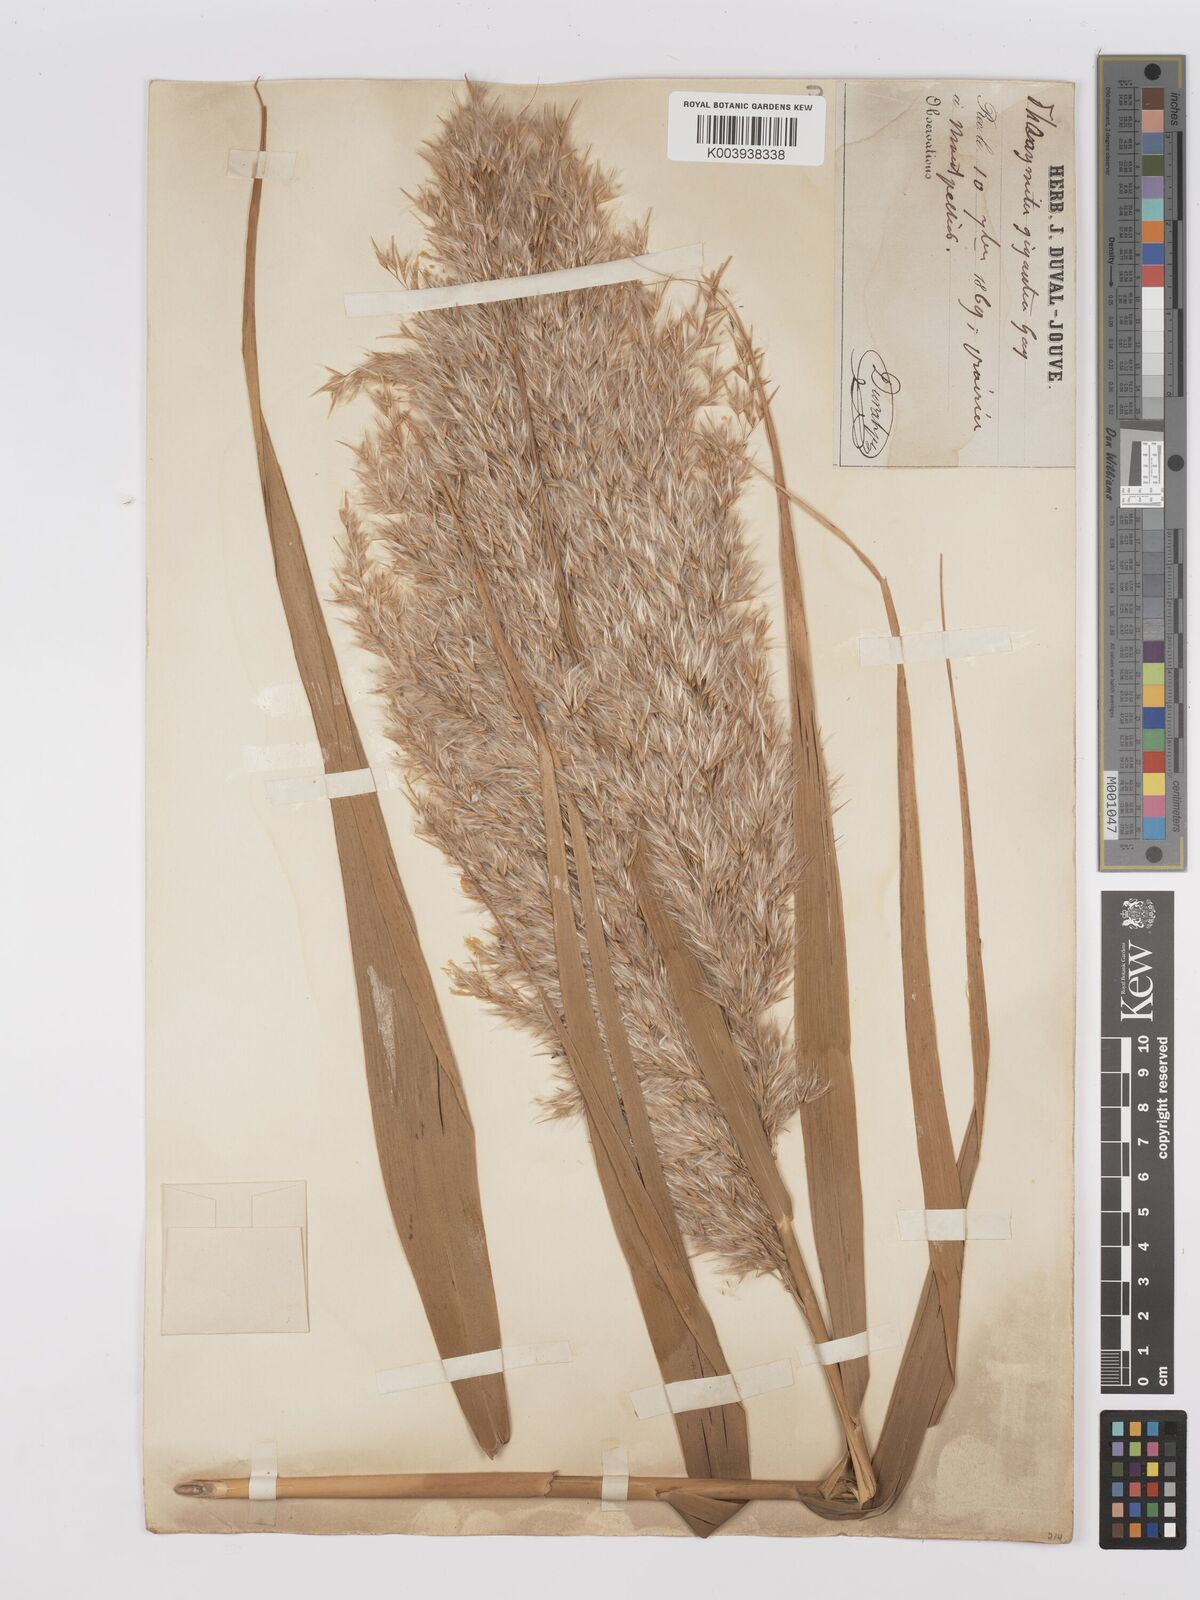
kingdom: Plantae
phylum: Tracheophyta
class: Liliopsida
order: Poales
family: Poaceae
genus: Phragmites
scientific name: Phragmites australis
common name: Common reed
